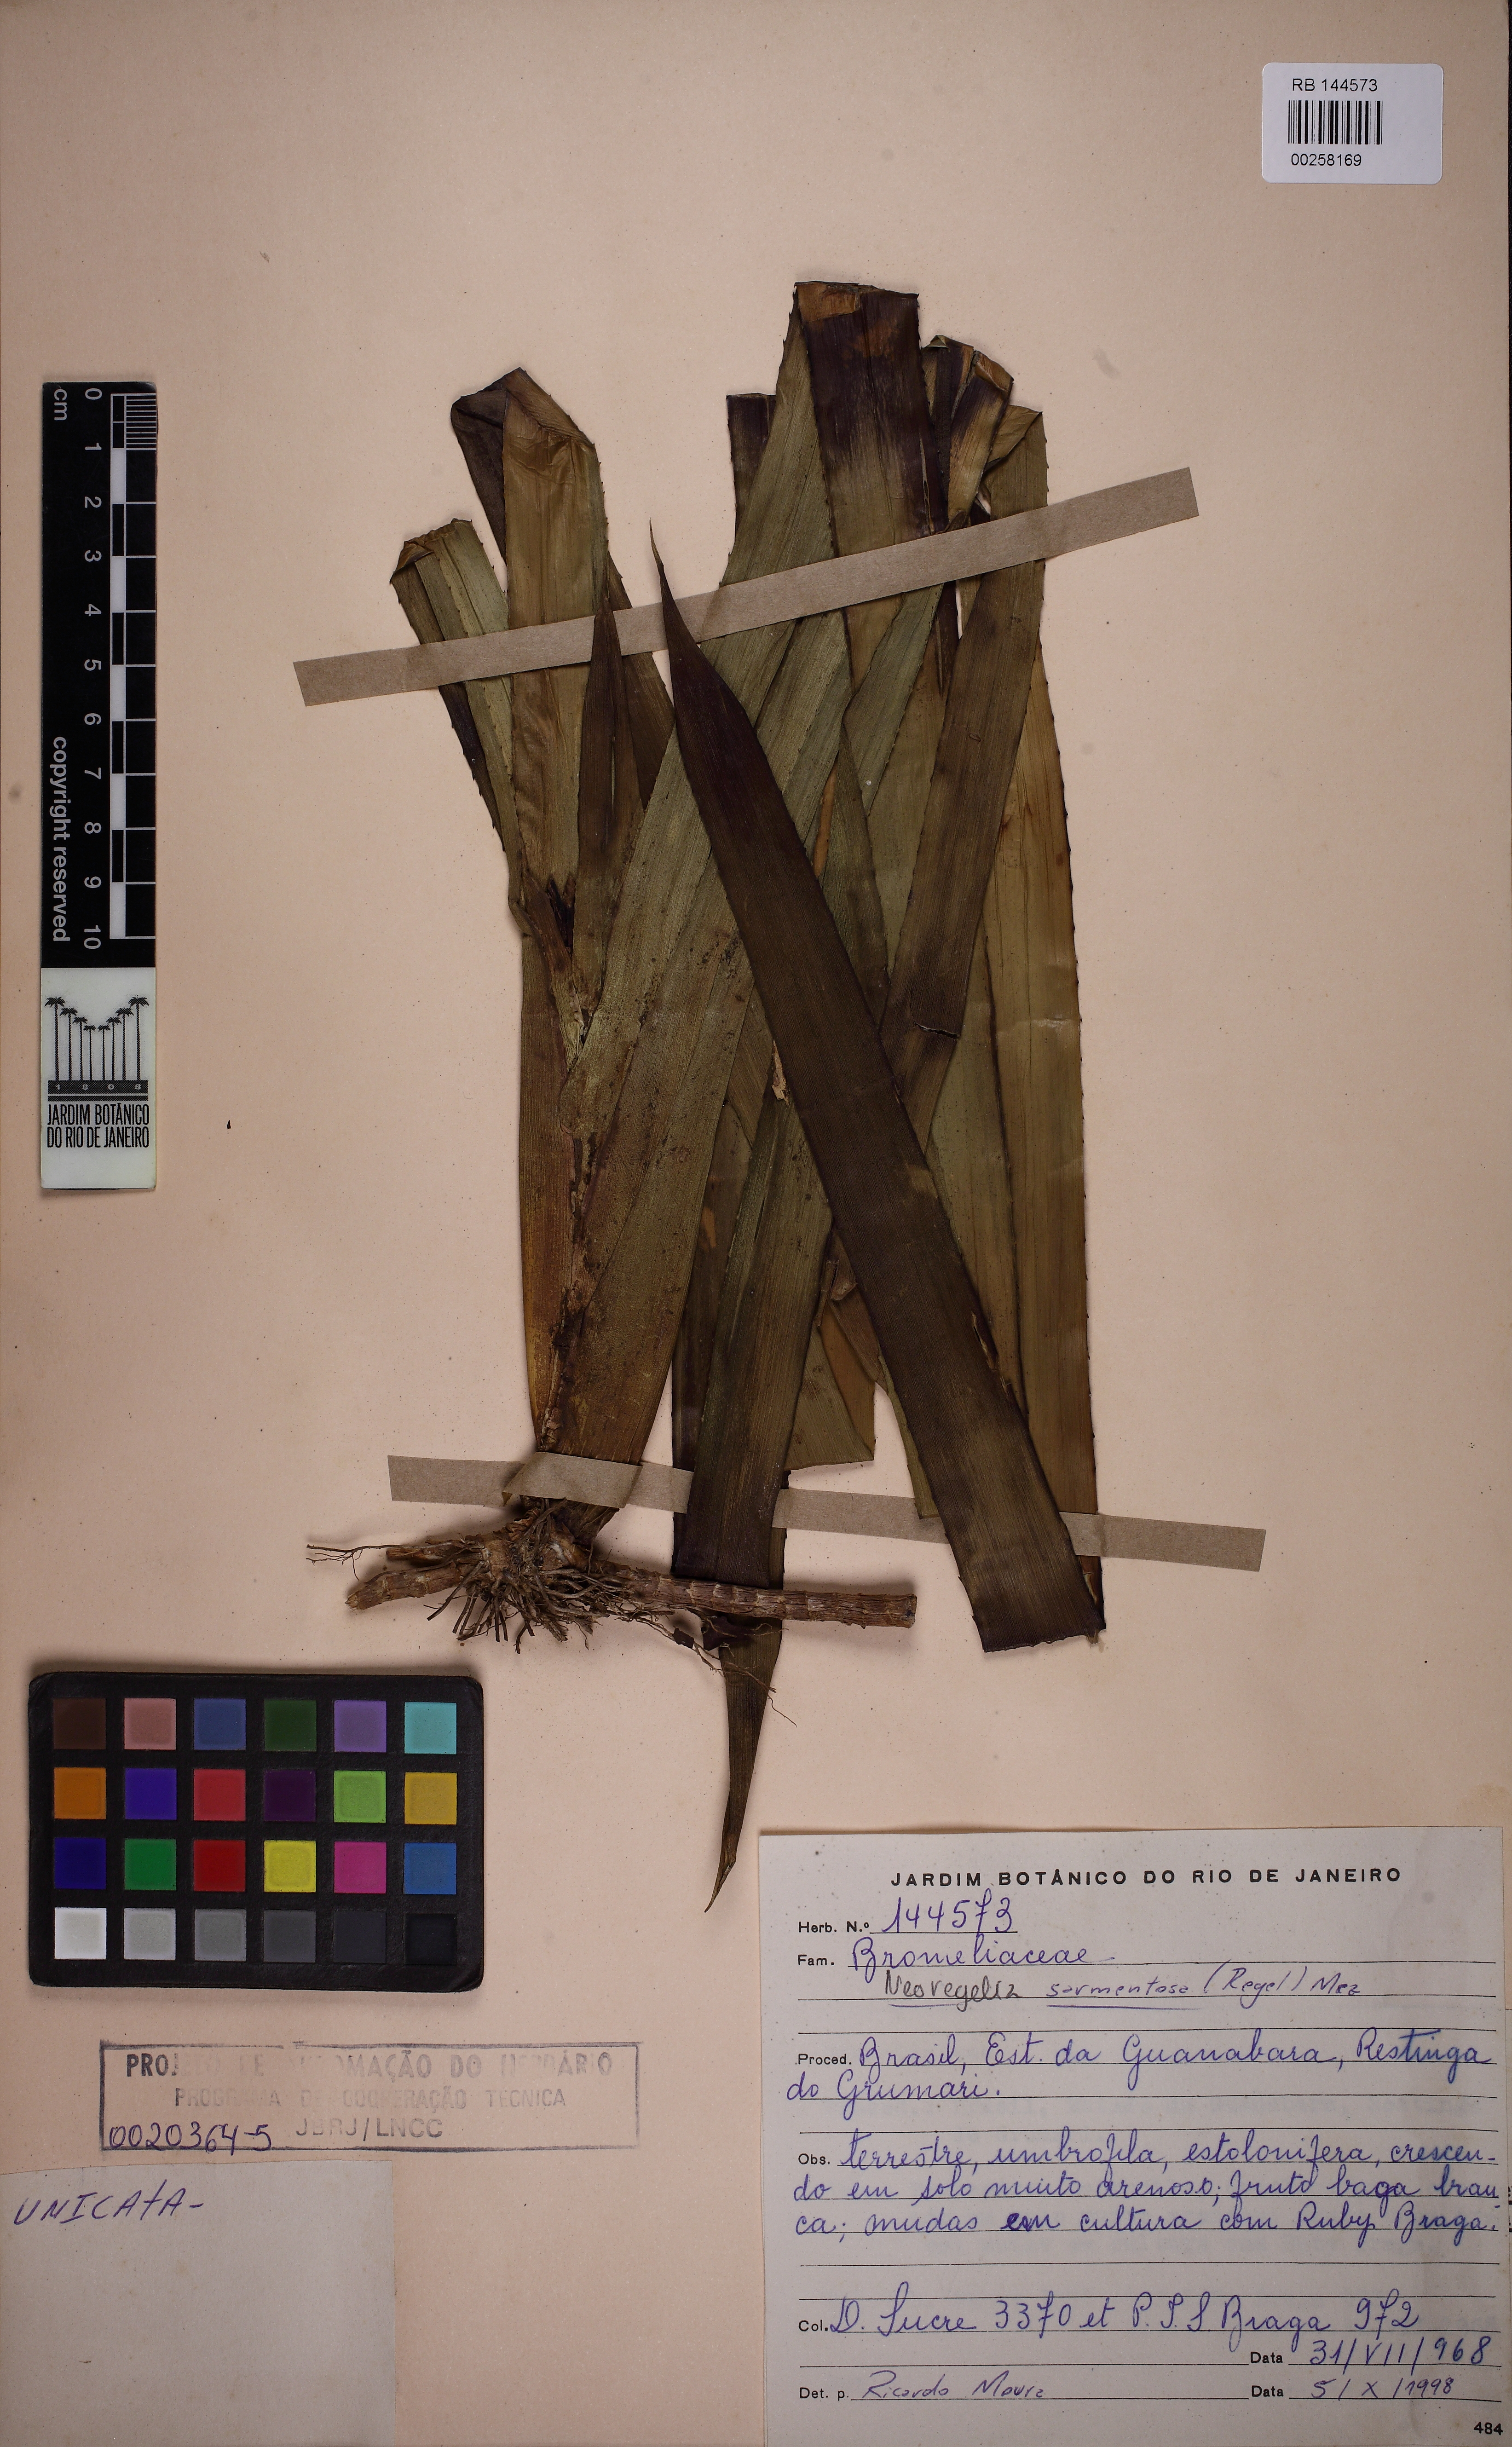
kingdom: Plantae
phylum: Tracheophyta
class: Liliopsida
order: Poales
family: Bromeliaceae
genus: Neoregelia
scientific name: Neoregelia sarmentosa
